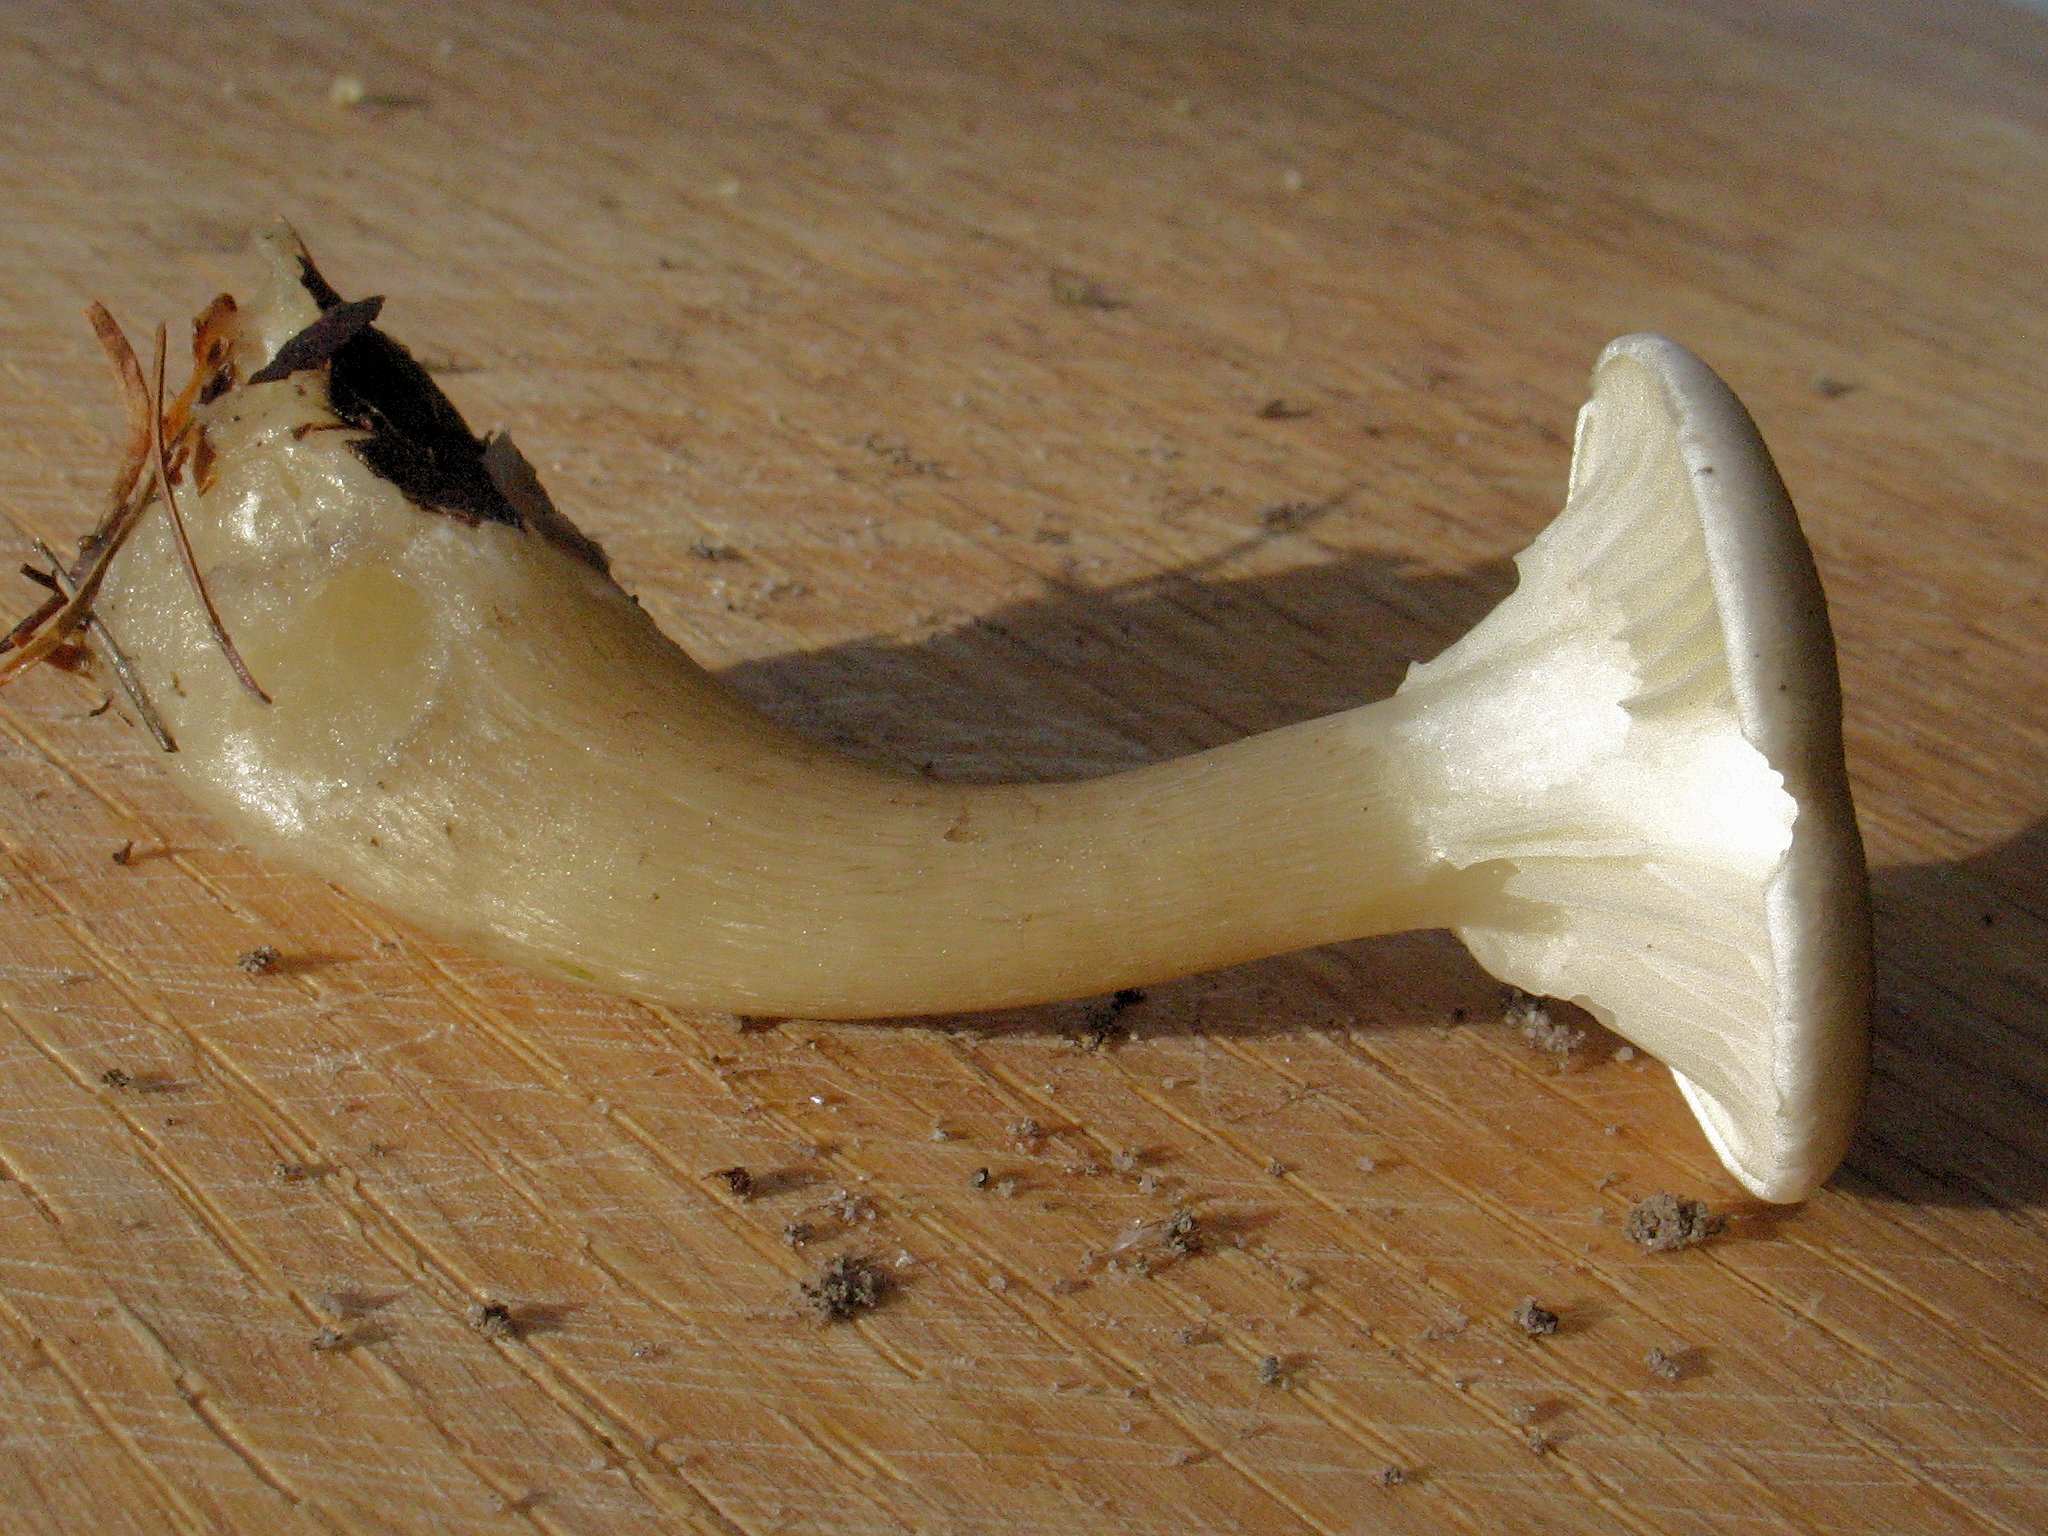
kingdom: Fungi
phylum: Basidiomycota
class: Agaricomycetes
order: Agaricales
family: Hygrophoraceae
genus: Ampulloclitocybe
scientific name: Ampulloclitocybe clavipes
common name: køllefod
